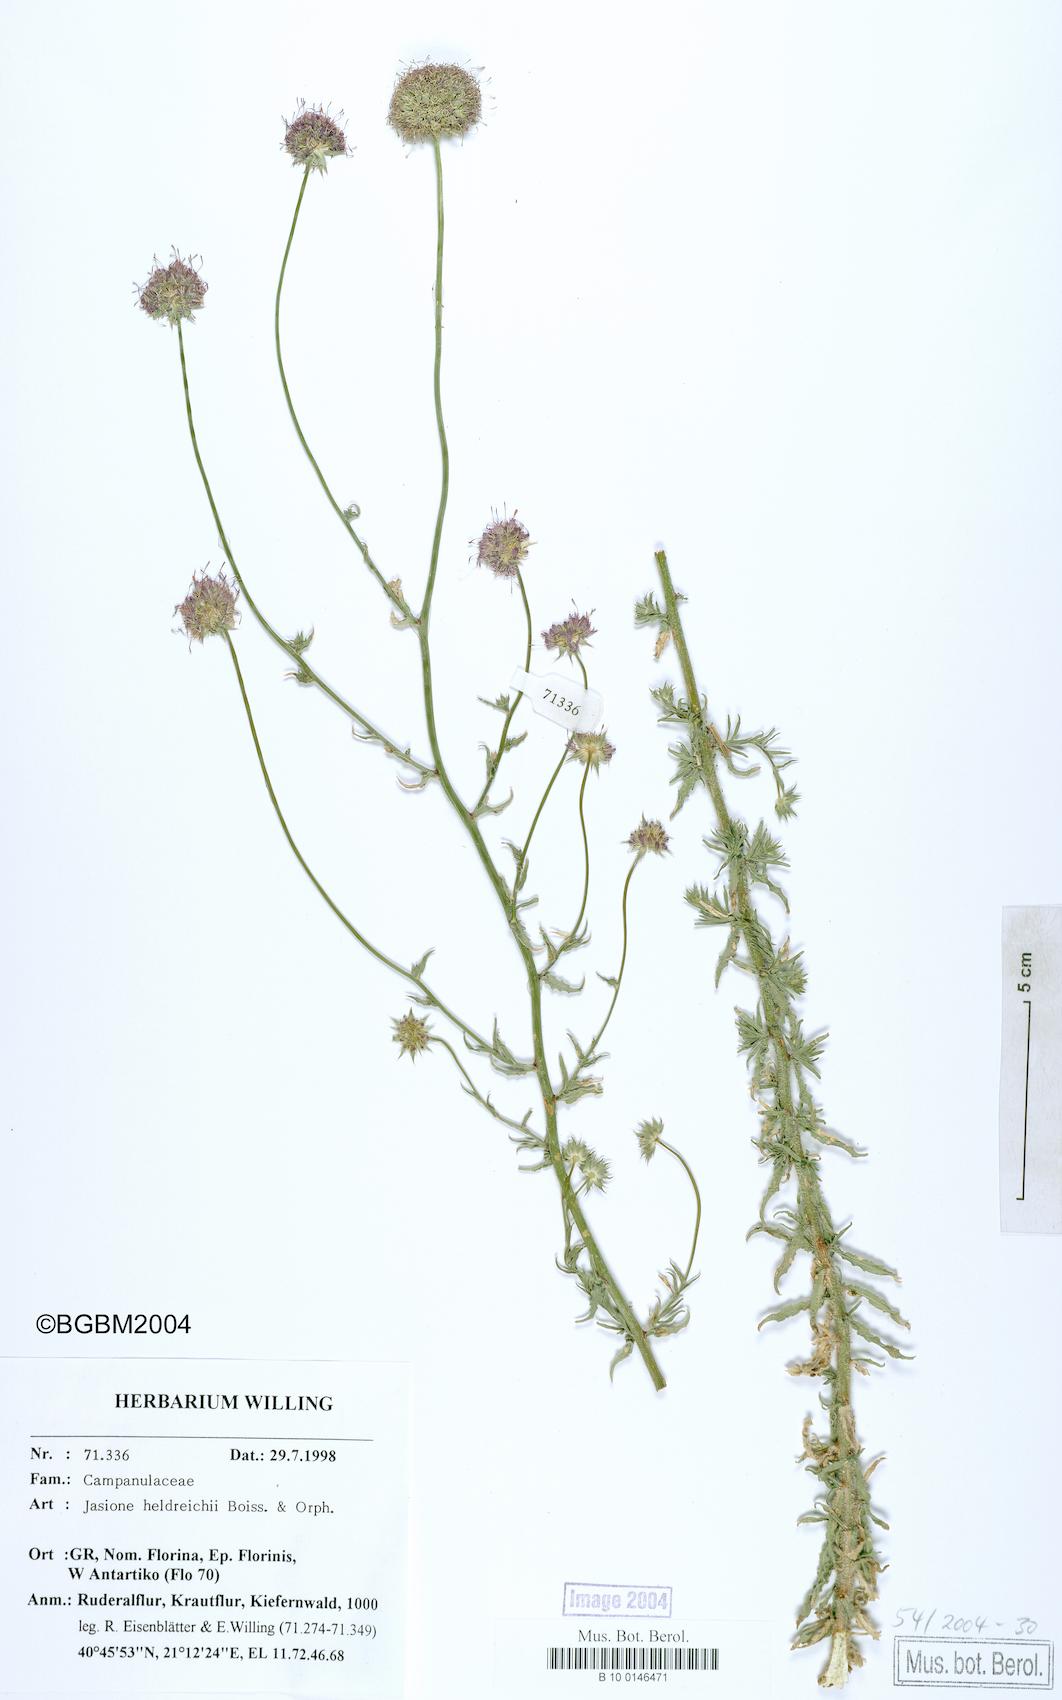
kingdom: Plantae
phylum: Tracheophyta
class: Magnoliopsida
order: Asterales
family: Campanulaceae
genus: Jasione
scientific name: Jasione heldreichii
